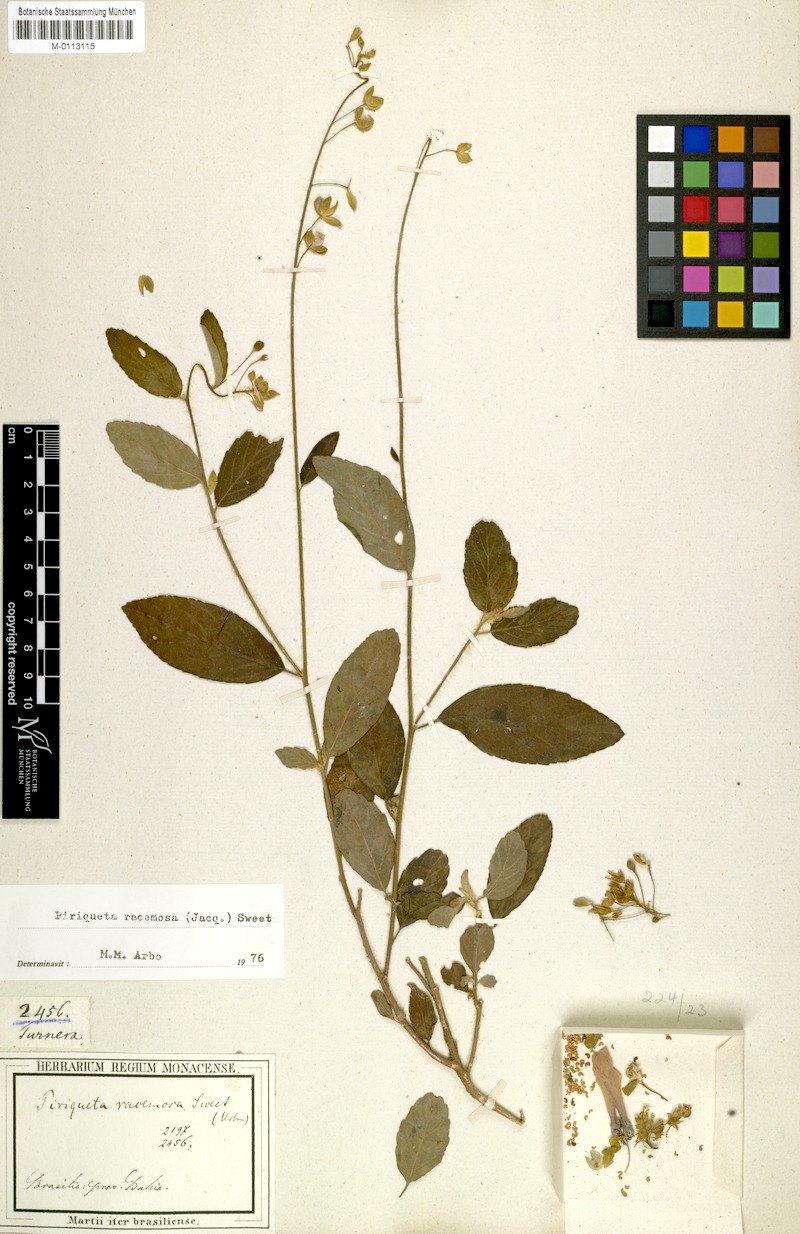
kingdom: Plantae
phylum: Tracheophyta
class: Magnoliopsida
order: Malpighiales
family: Turneraceae
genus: Piriqueta
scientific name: Piriqueta racemosa
